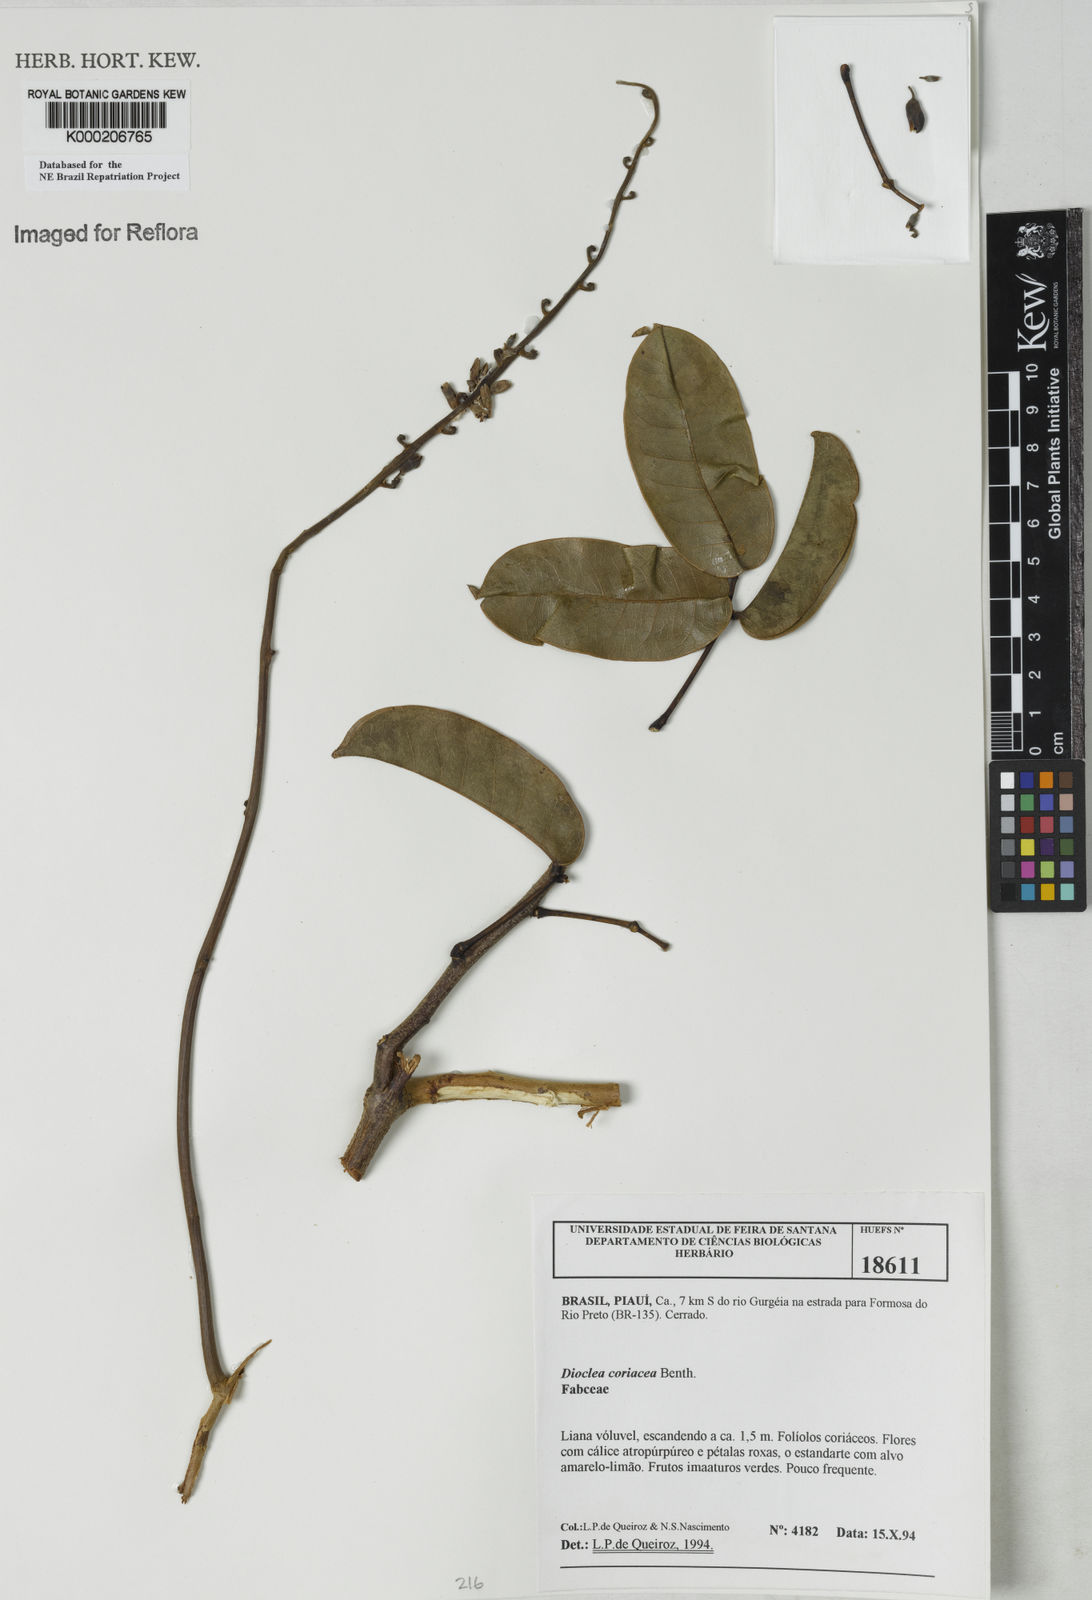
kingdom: Plantae
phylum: Tracheophyta
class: Magnoliopsida
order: Fabales
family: Fabaceae
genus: Macropsychanthus
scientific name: Macropsychanthus coriaceus
